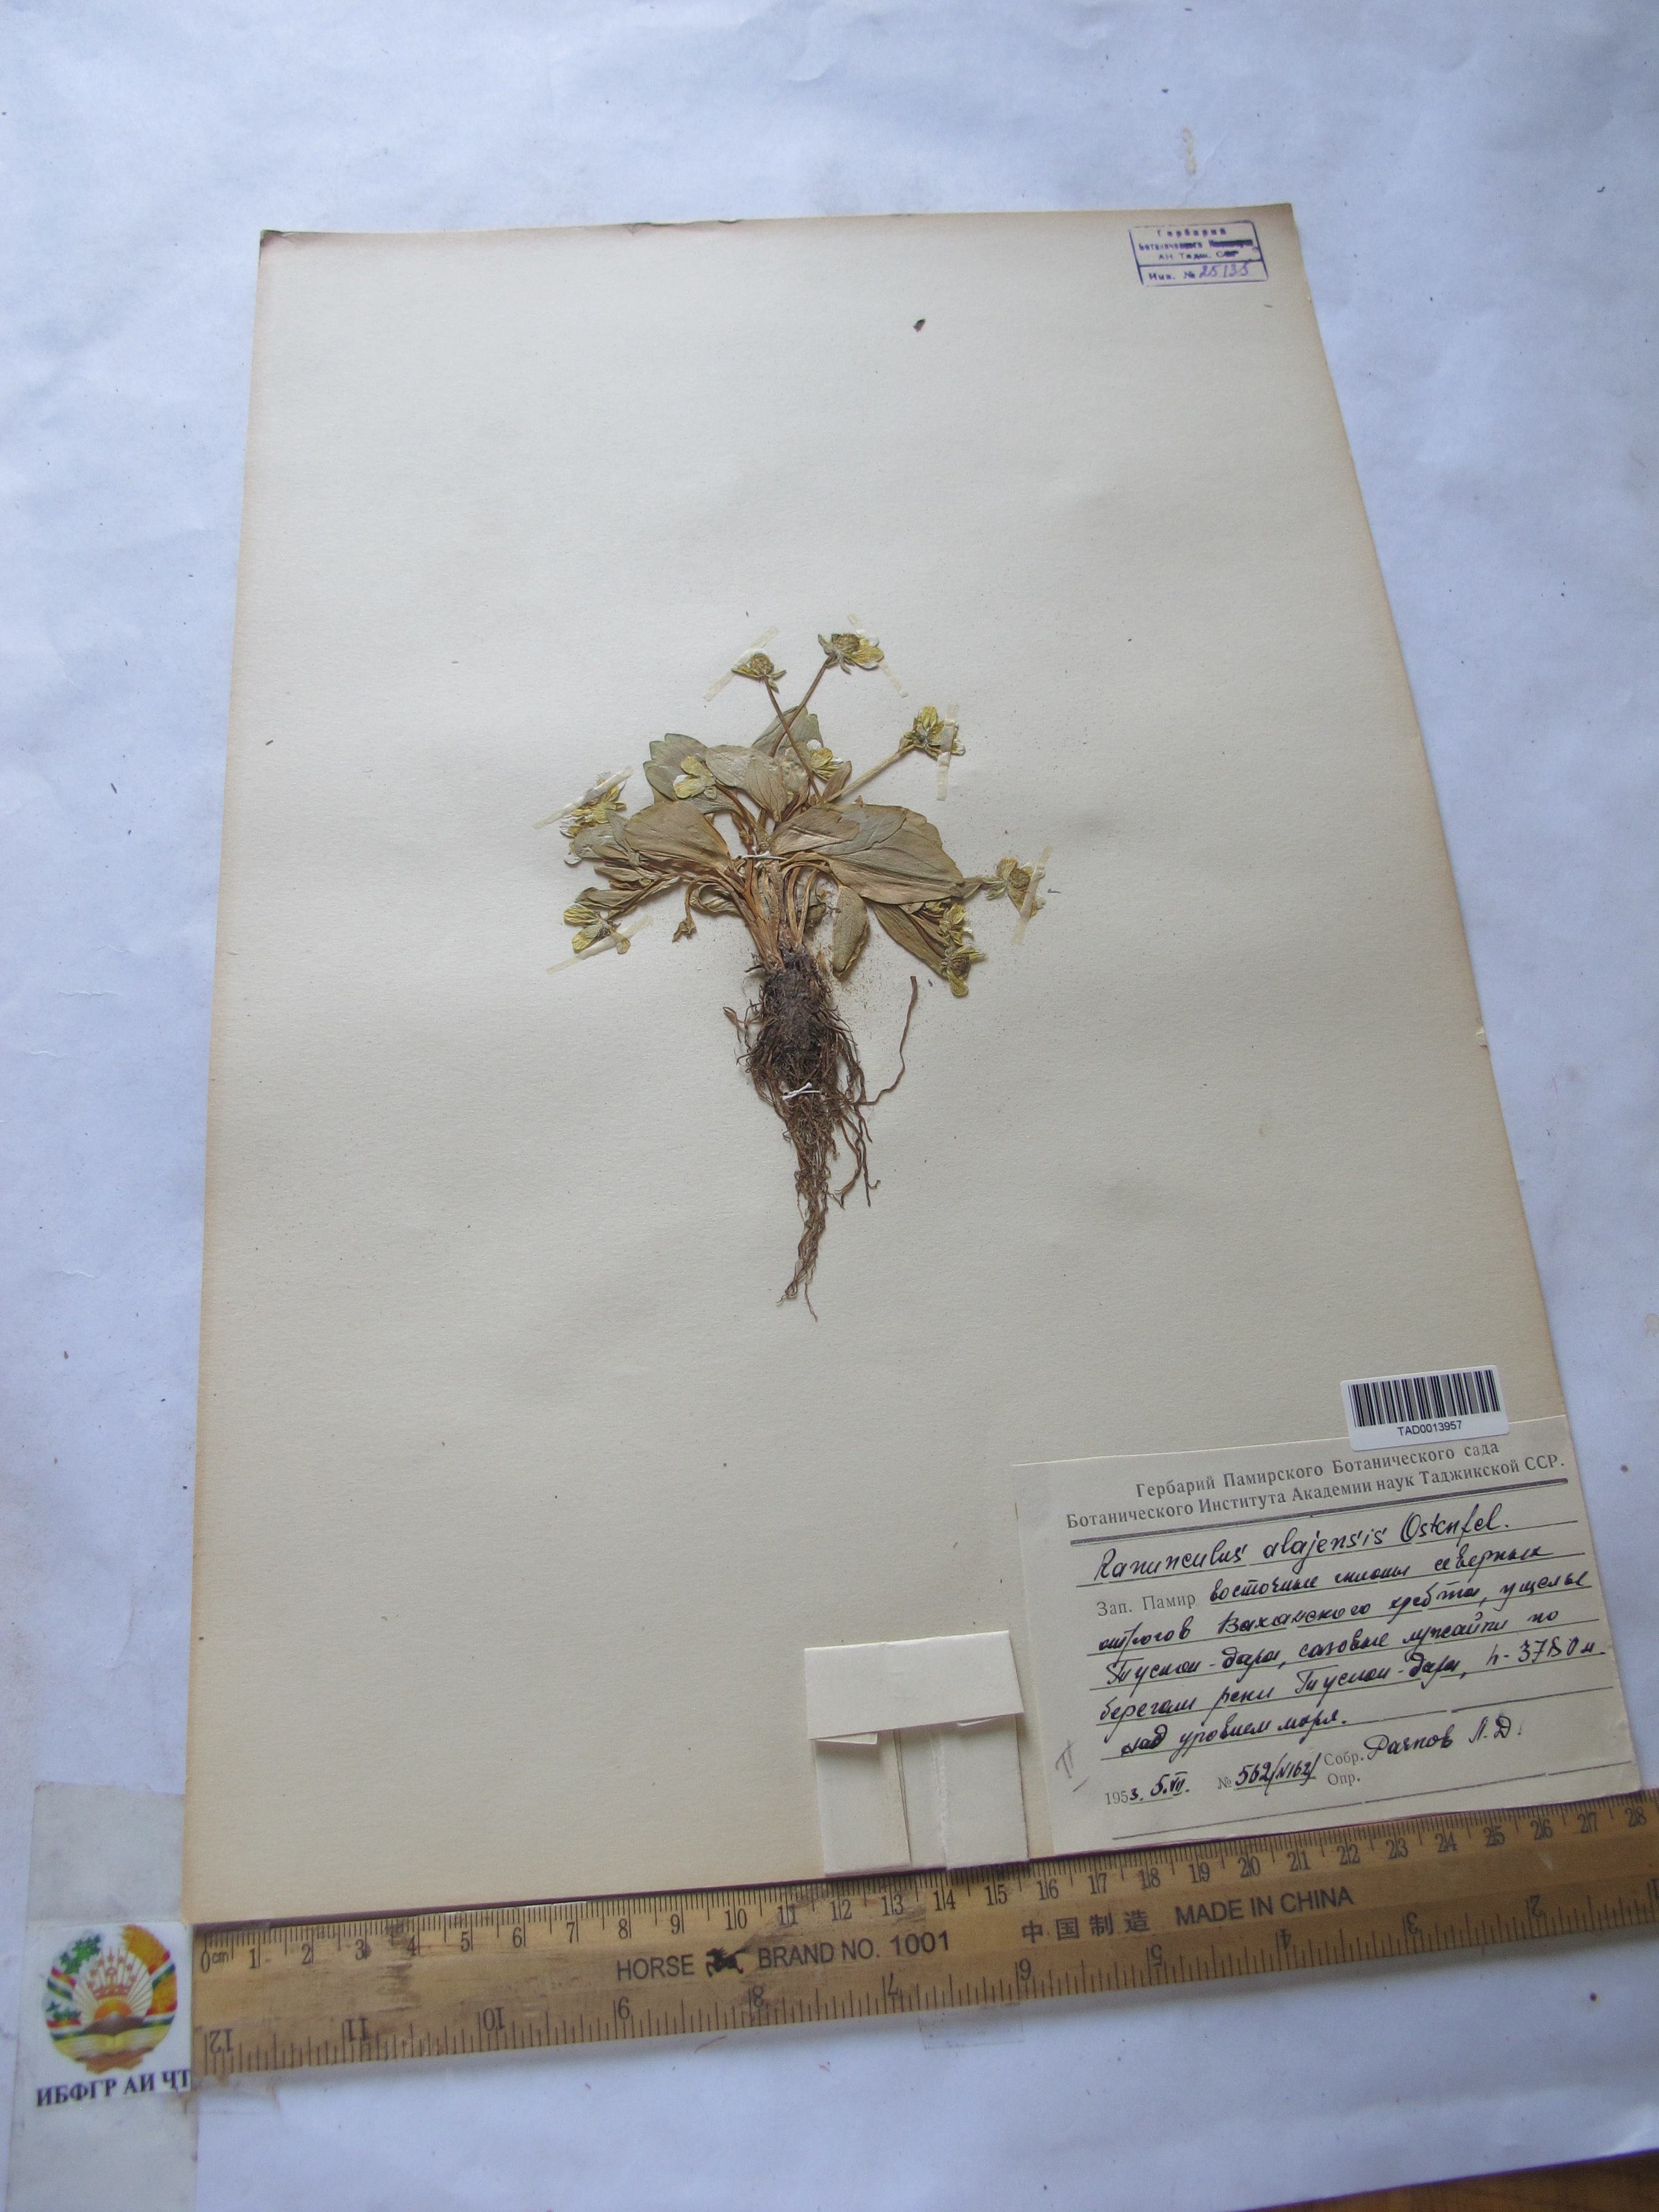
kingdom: Plantae
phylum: Tracheophyta
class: Magnoliopsida
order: Ranunculales
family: Ranunculaceae
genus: Ranunculus
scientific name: Ranunculus alaiensis
